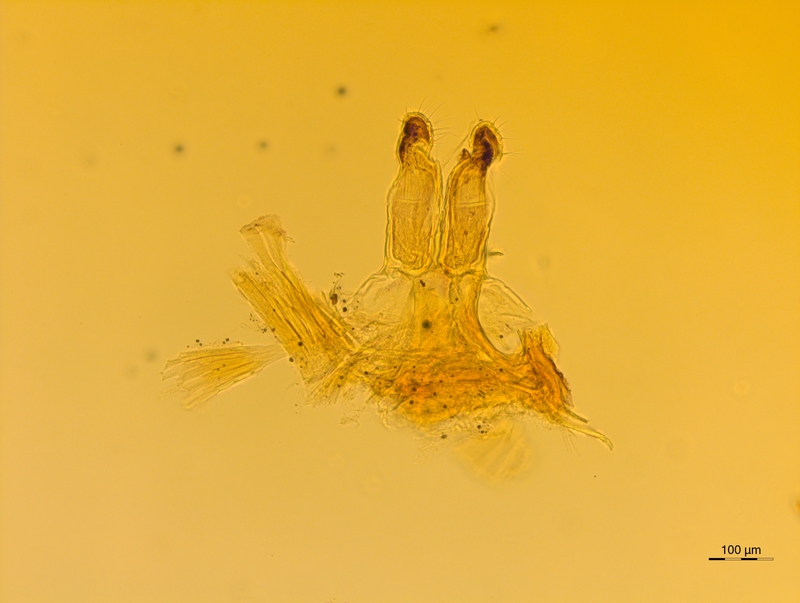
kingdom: Animalia
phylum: Arthropoda
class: Diplopoda
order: Chordeumatida
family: Attemsiidae
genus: Syngonopodium
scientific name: Syngonopodium aceris
